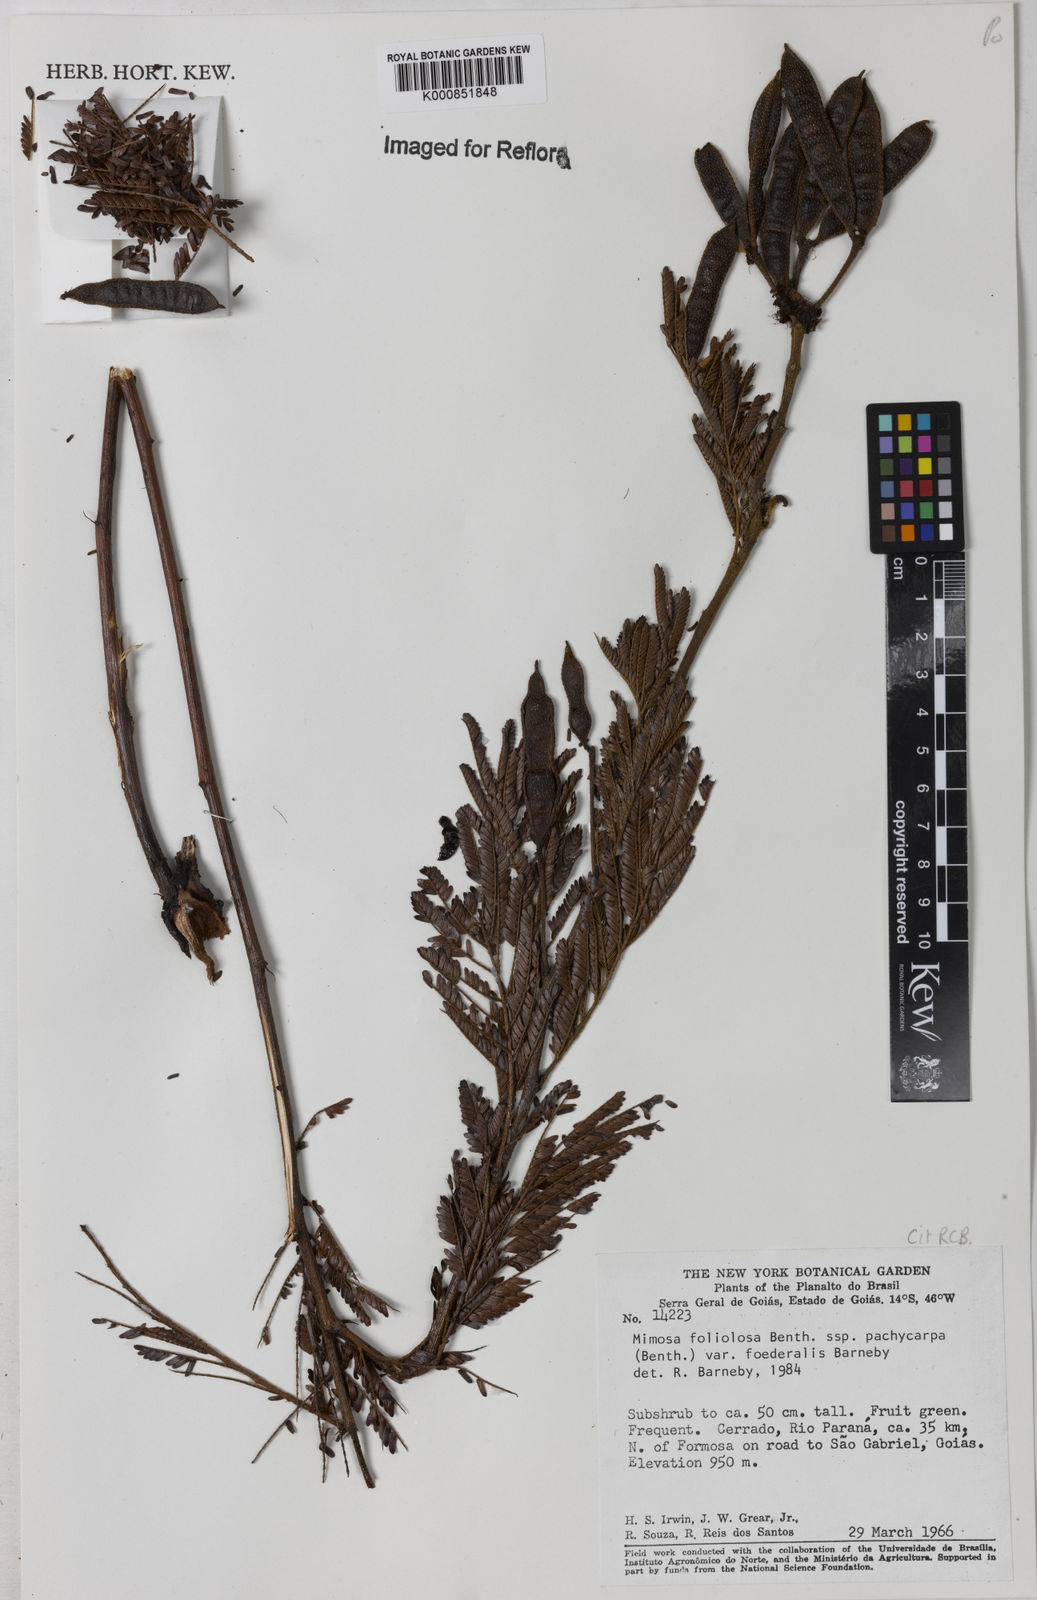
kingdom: Plantae
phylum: Tracheophyta
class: Magnoliopsida
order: Fabales
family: Fabaceae
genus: Mimosa
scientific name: Mimosa foliolosa
